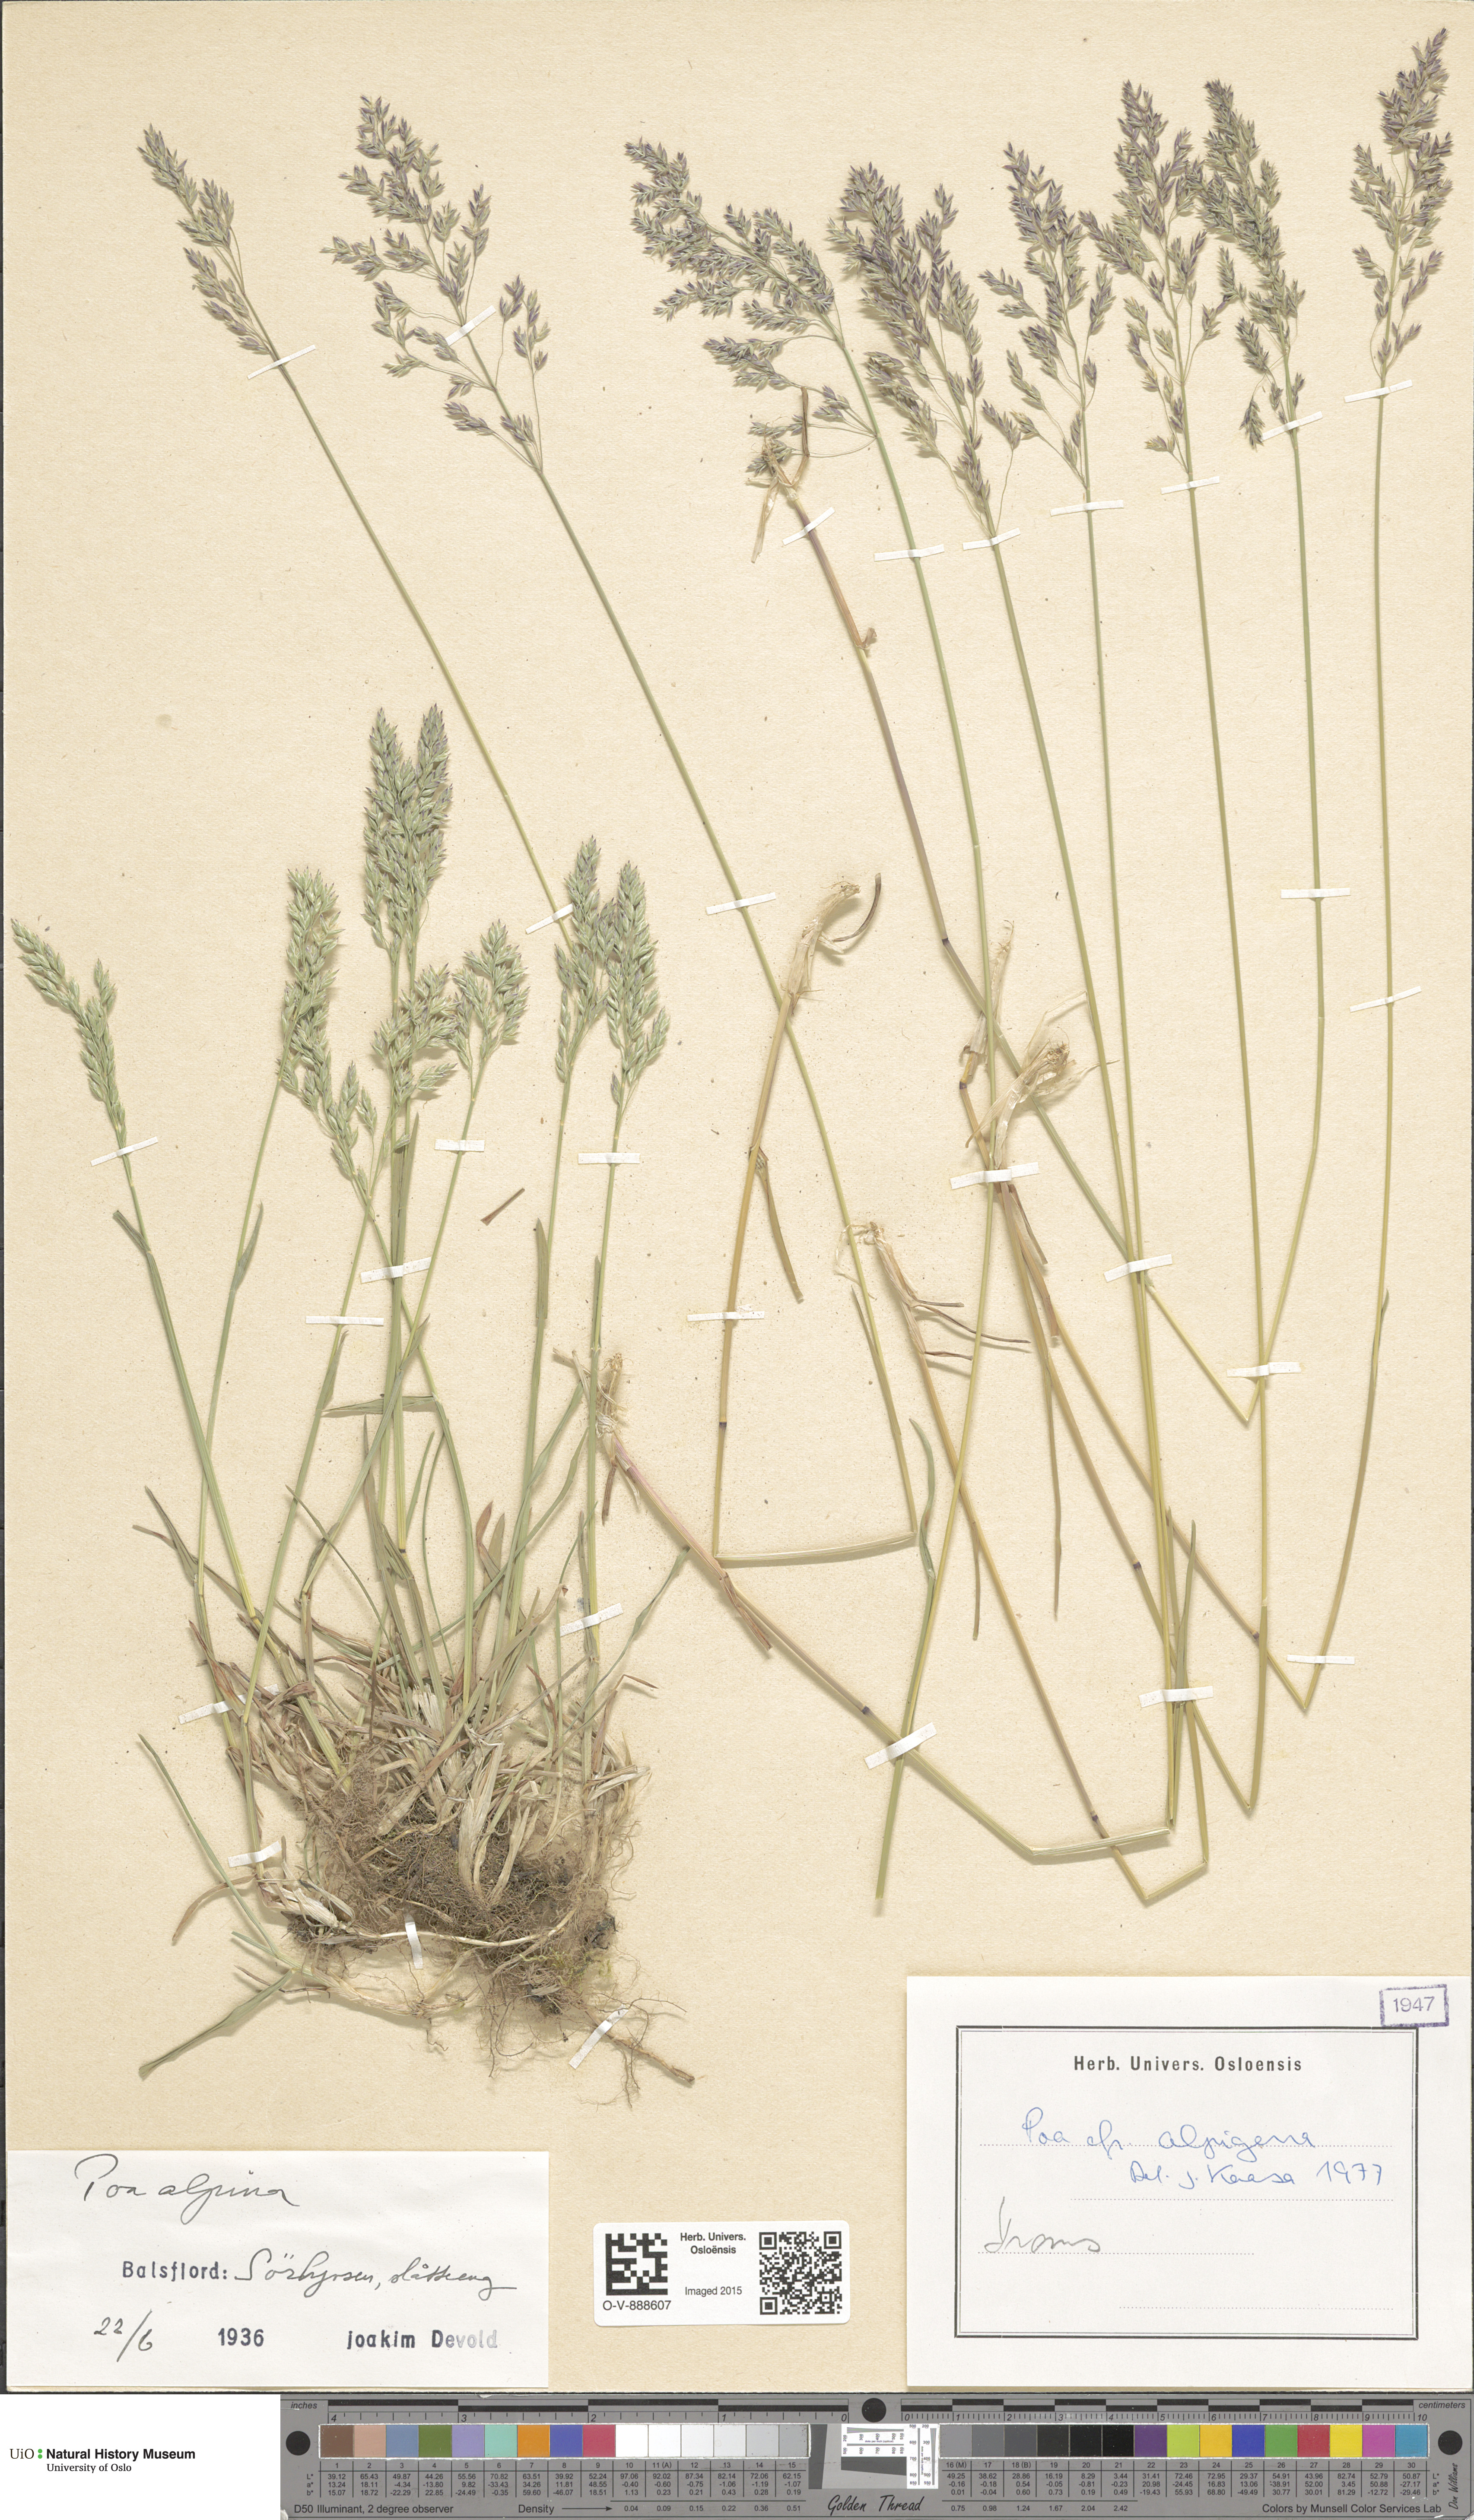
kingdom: Plantae
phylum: Tracheophyta
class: Liliopsida
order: Poales
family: Poaceae
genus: Poa
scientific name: Poa alpigena
